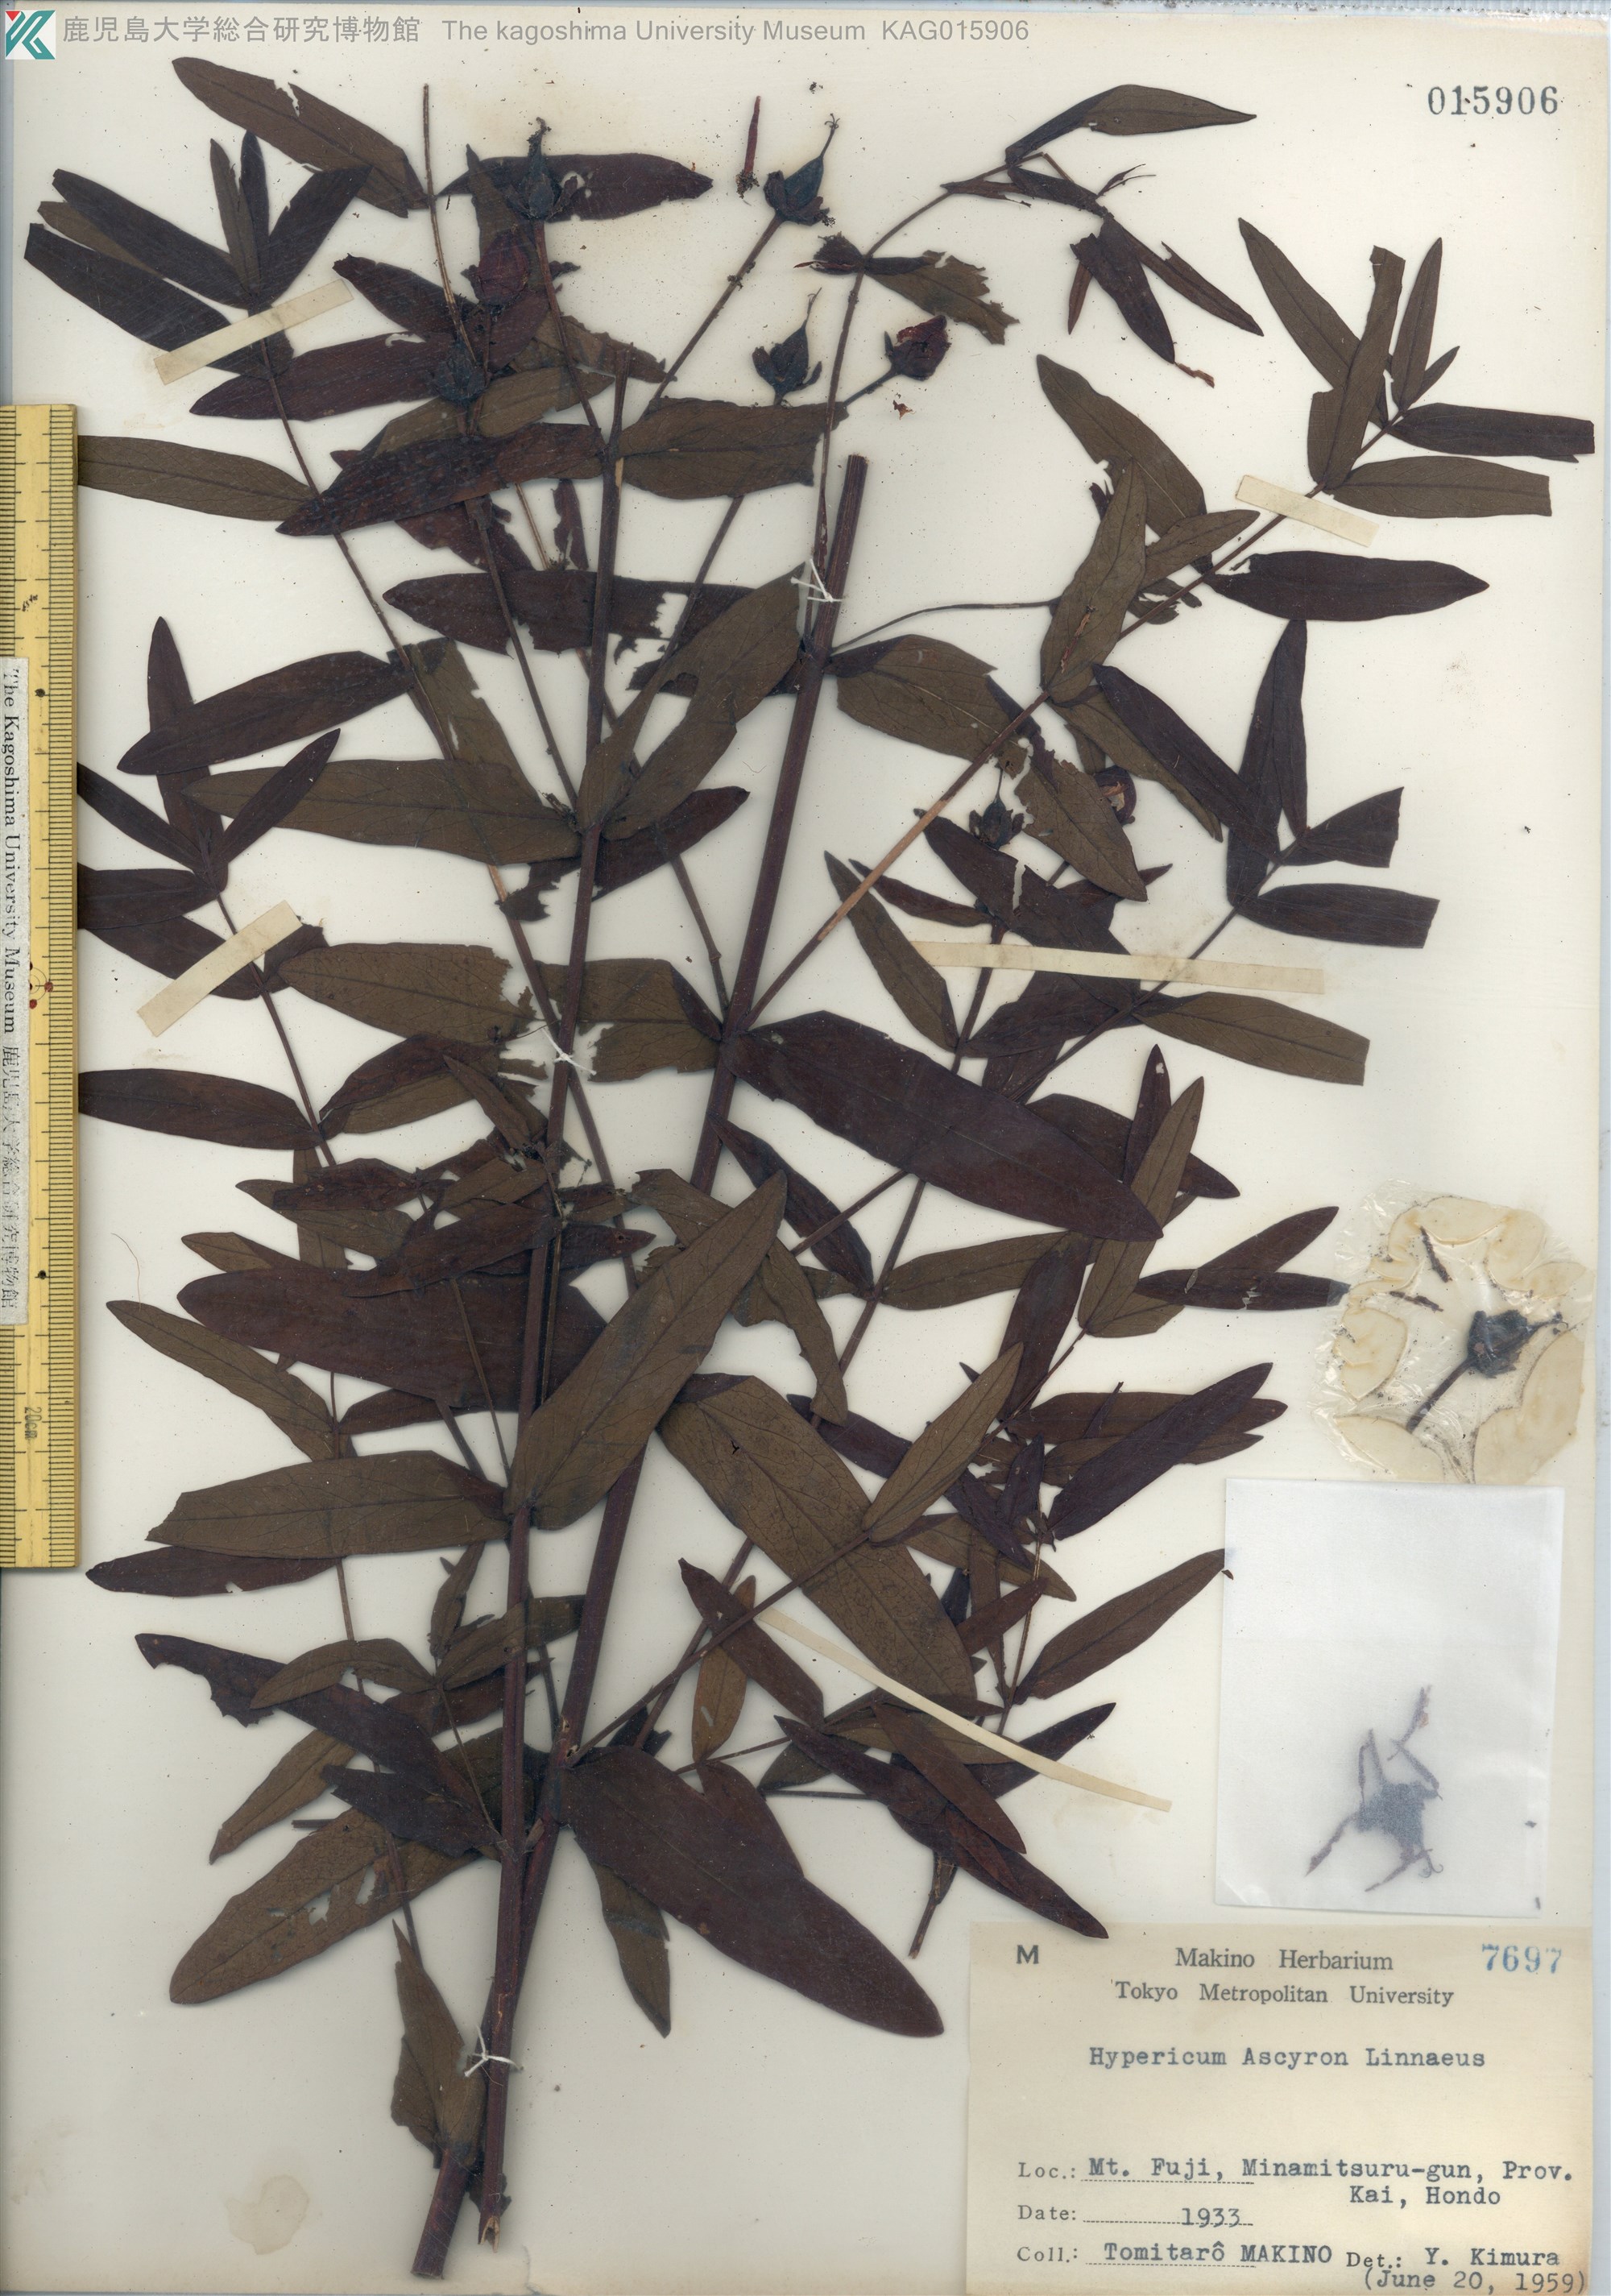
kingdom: Plantae
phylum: Tracheophyta
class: Magnoliopsida
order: Malpighiales
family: Hypericaceae
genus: Hypericum
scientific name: Hypericum ascyron
